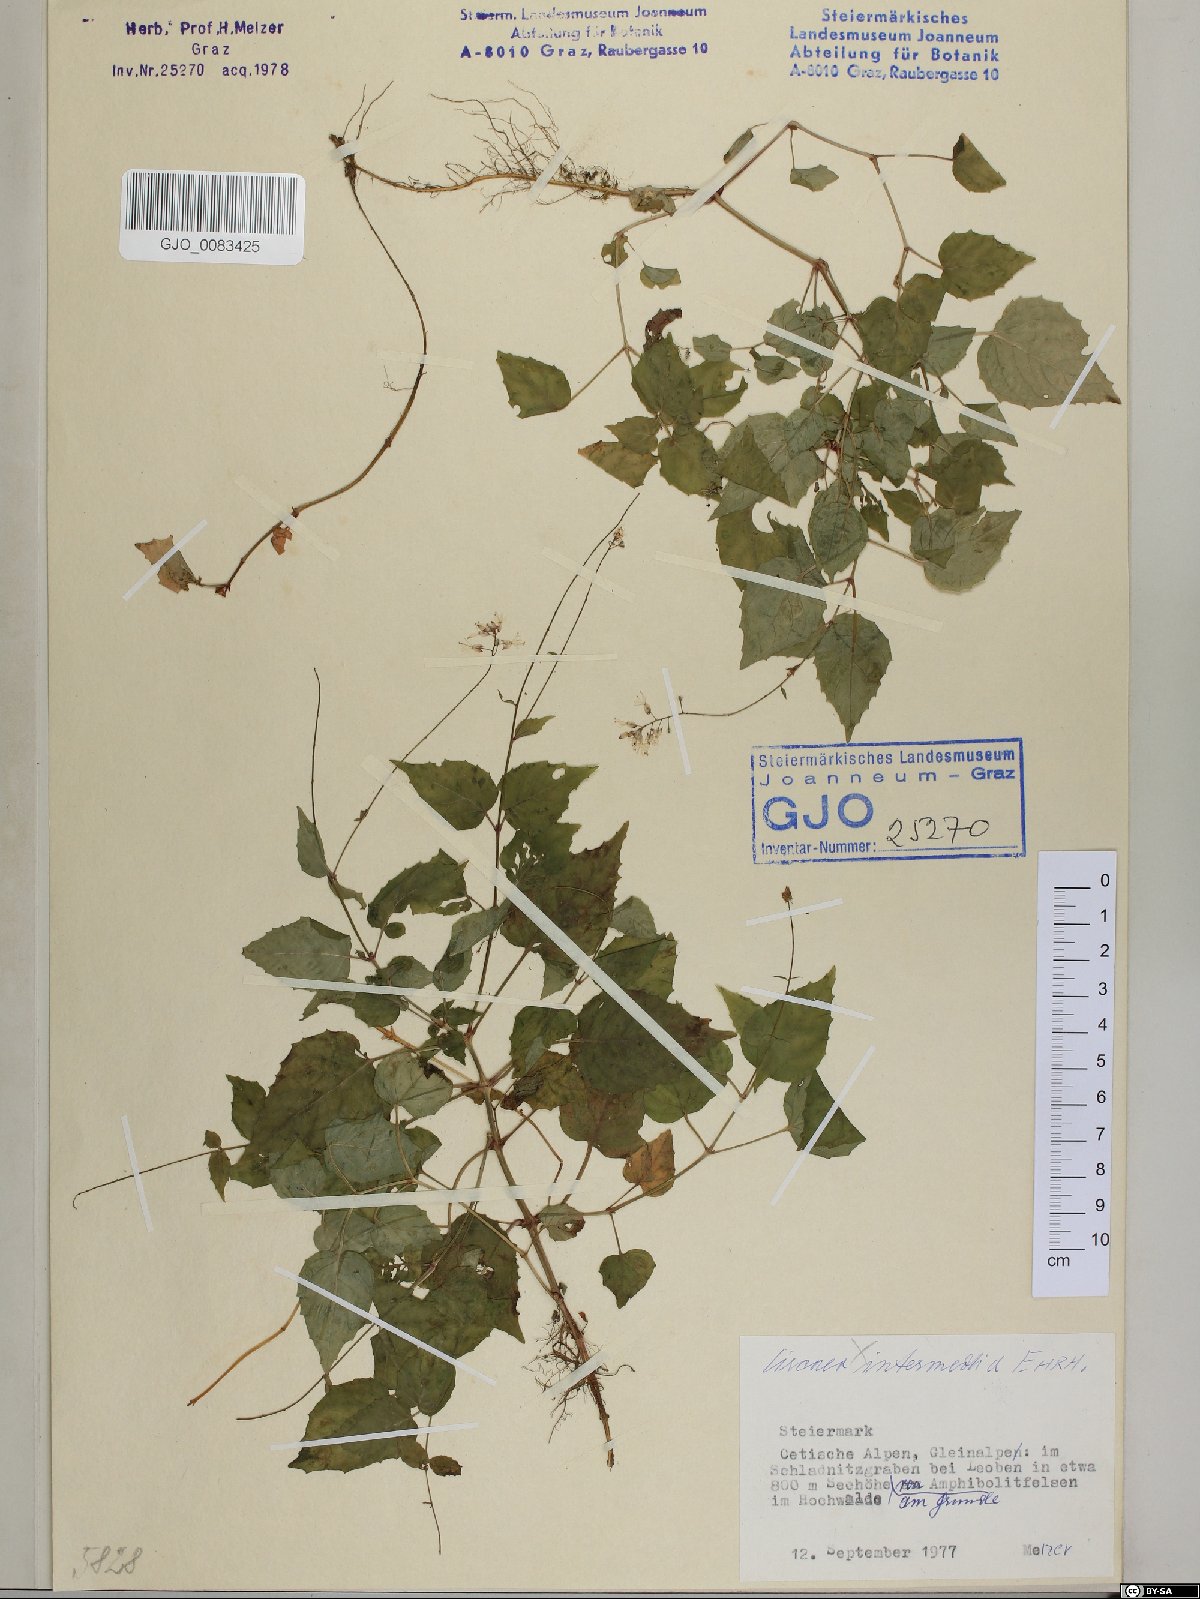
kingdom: Plantae
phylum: Tracheophyta
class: Magnoliopsida
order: Myrtales
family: Onagraceae
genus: Circaea
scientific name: Circaea intermedia
